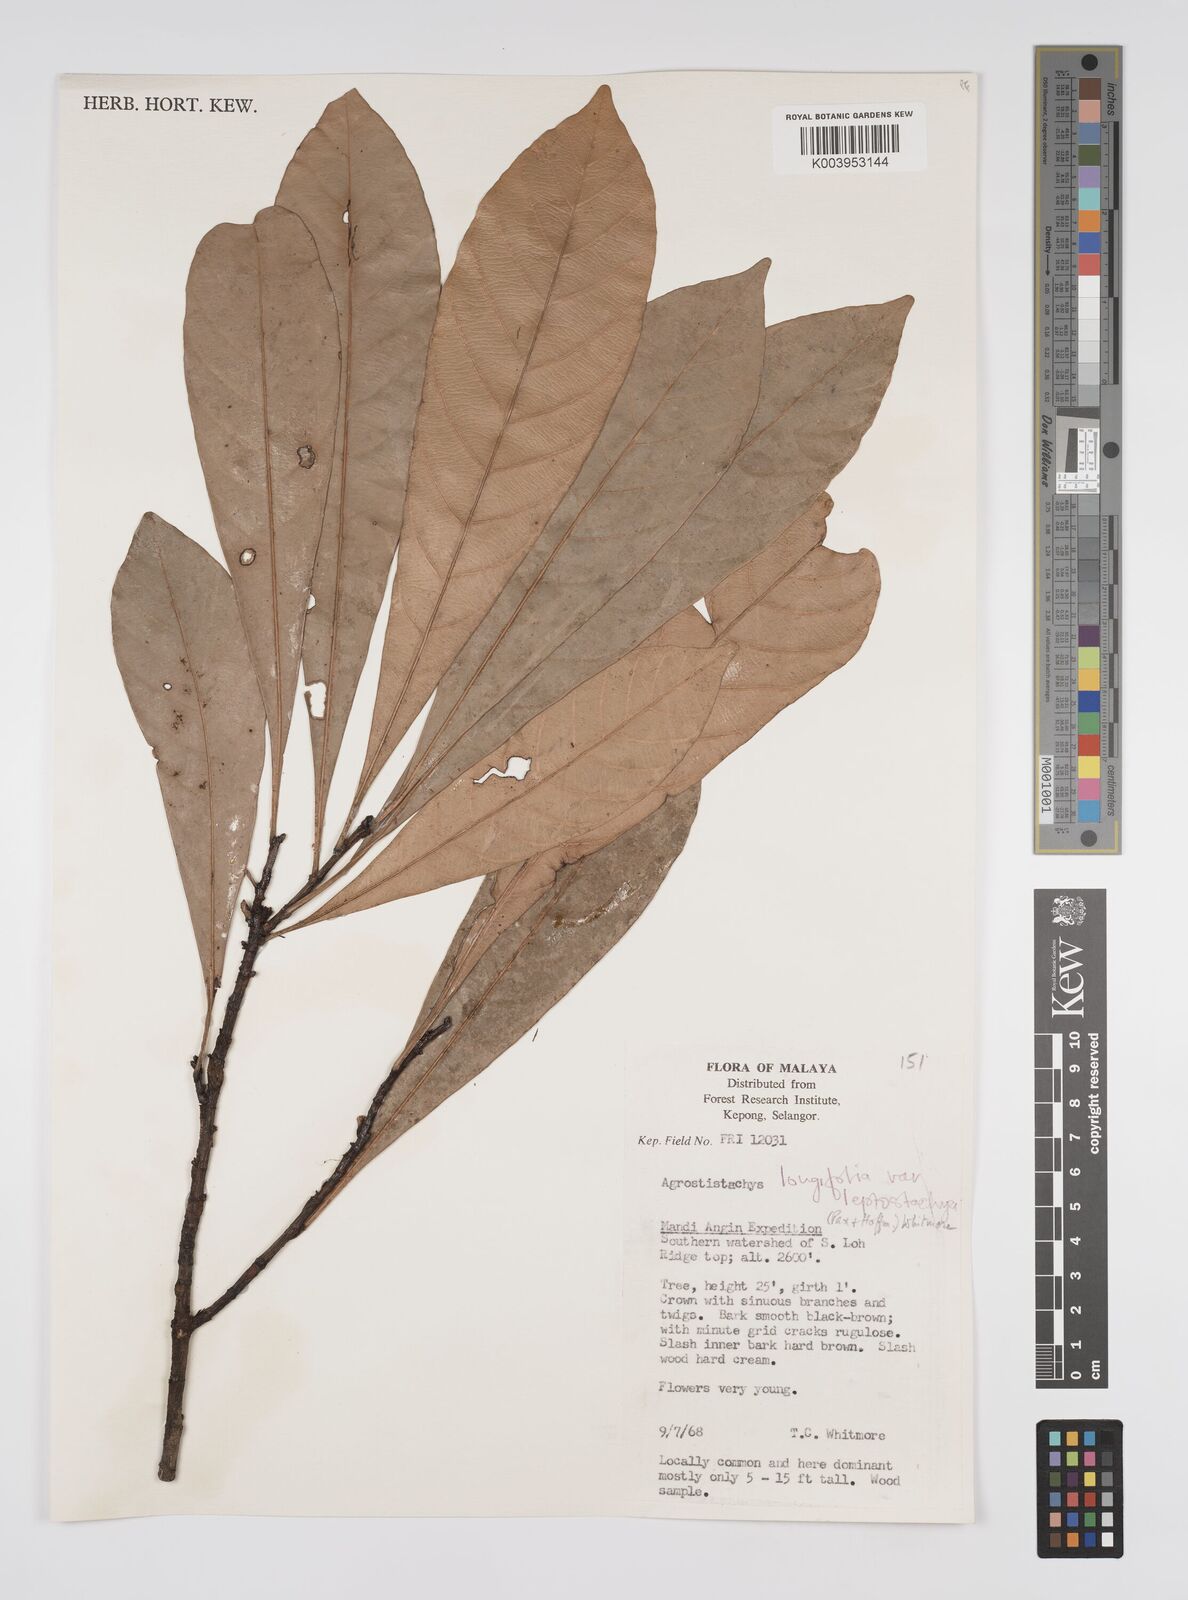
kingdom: Plantae
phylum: Tracheophyta
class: Magnoliopsida
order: Malpighiales
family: Euphorbiaceae
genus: Agrostistachys
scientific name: Agrostistachys borneensis
